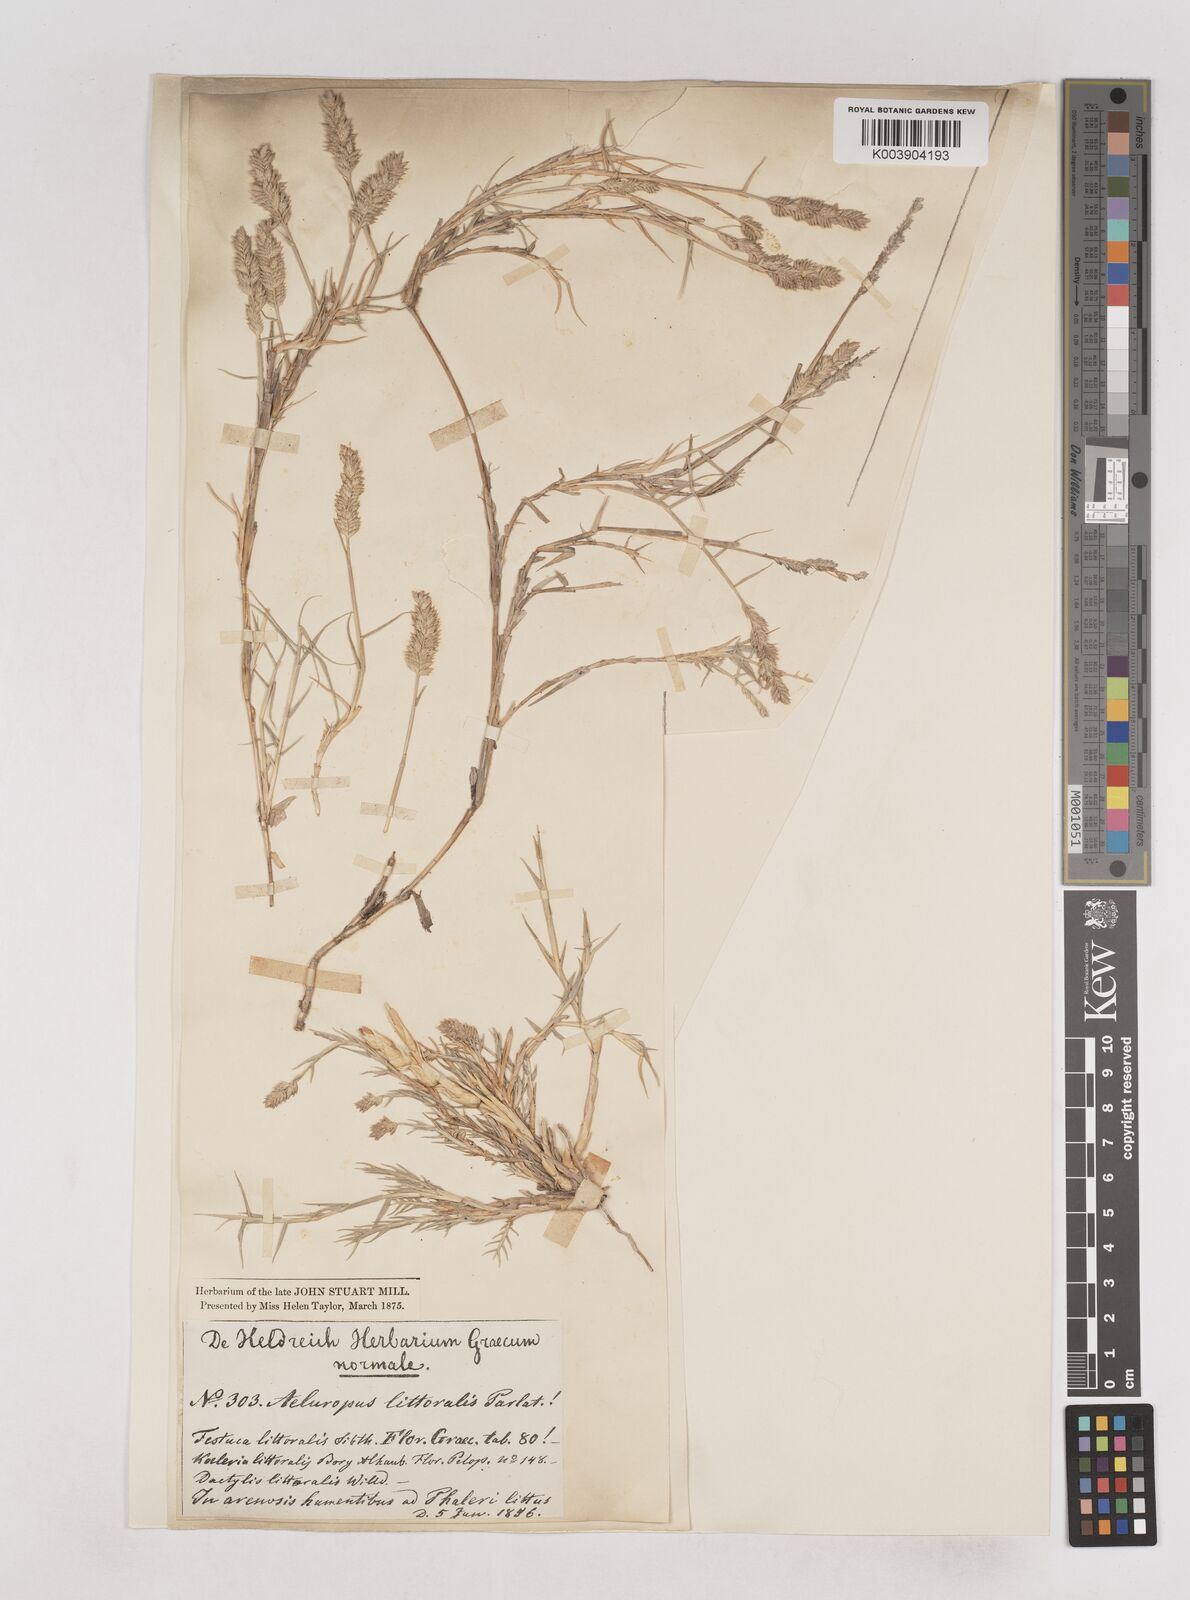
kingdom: Plantae
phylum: Tracheophyta
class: Liliopsida
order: Poales
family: Poaceae
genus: Aeluropus
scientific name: Aeluropus littoralis
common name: Indian walnut
